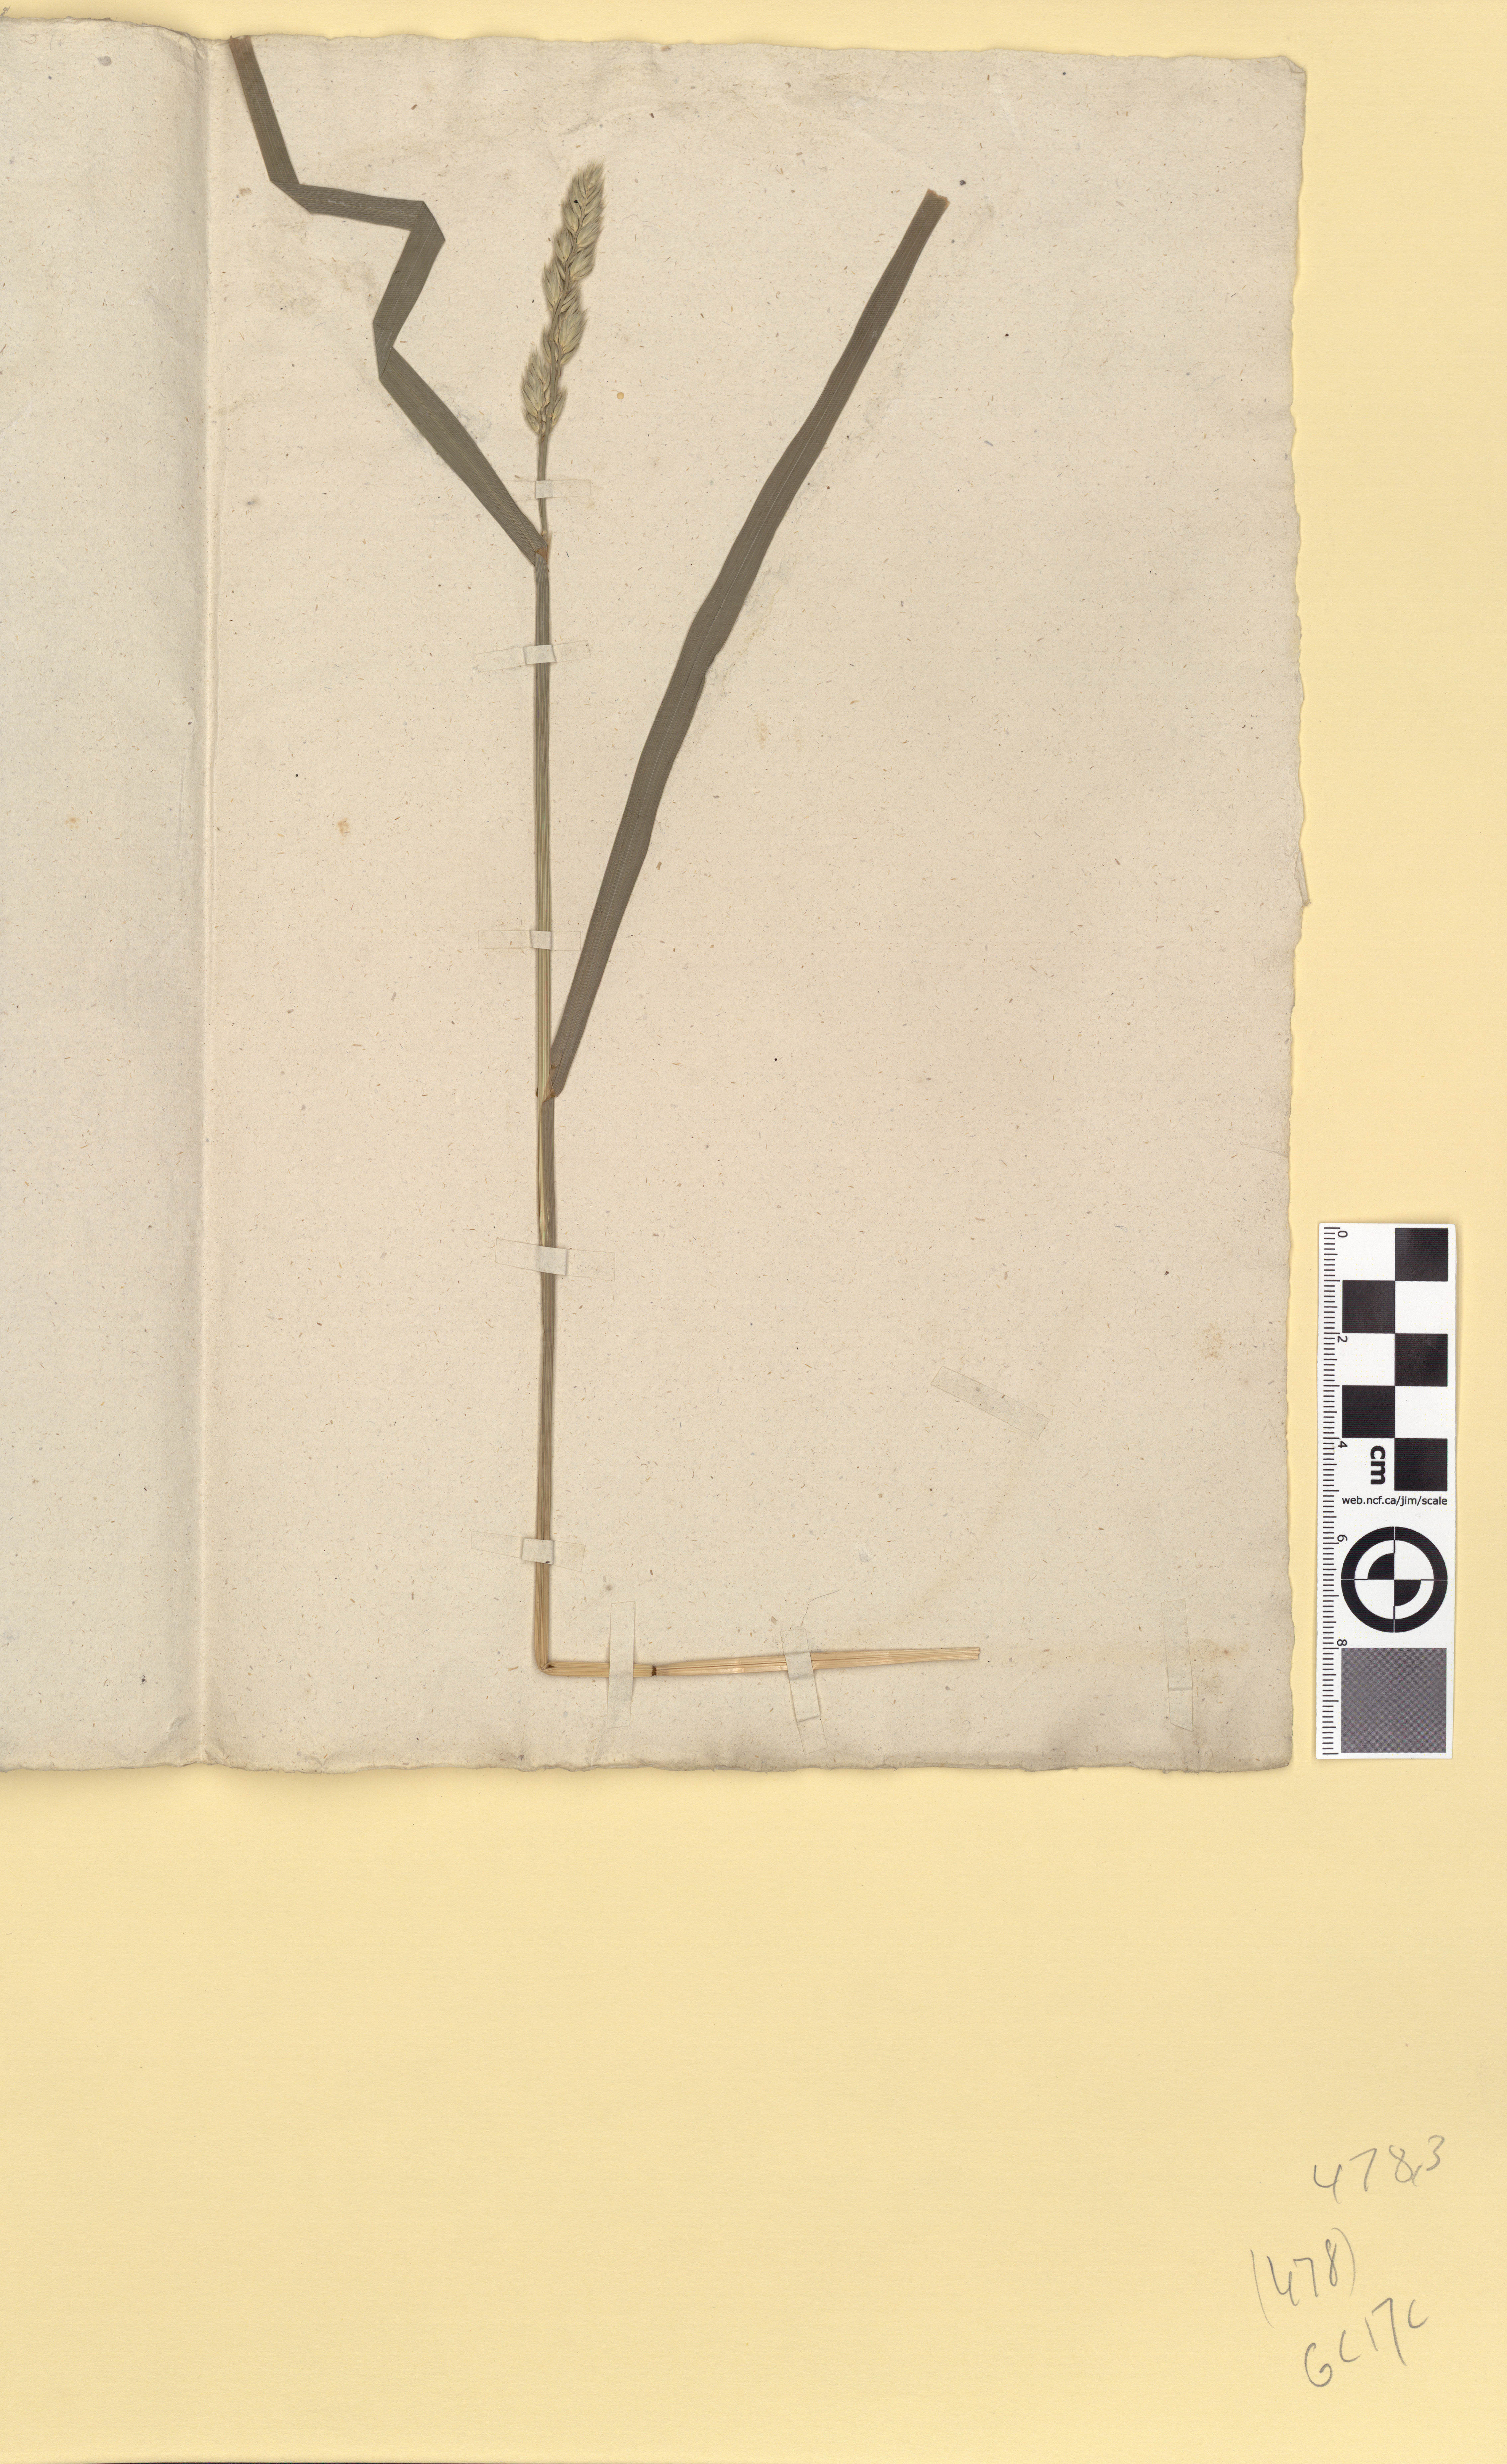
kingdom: Plantae
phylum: Tracheophyta
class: Liliopsida
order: Poales
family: Poaceae
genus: Dactylis
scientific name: Dactylis glomerata
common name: Orchardgrass
